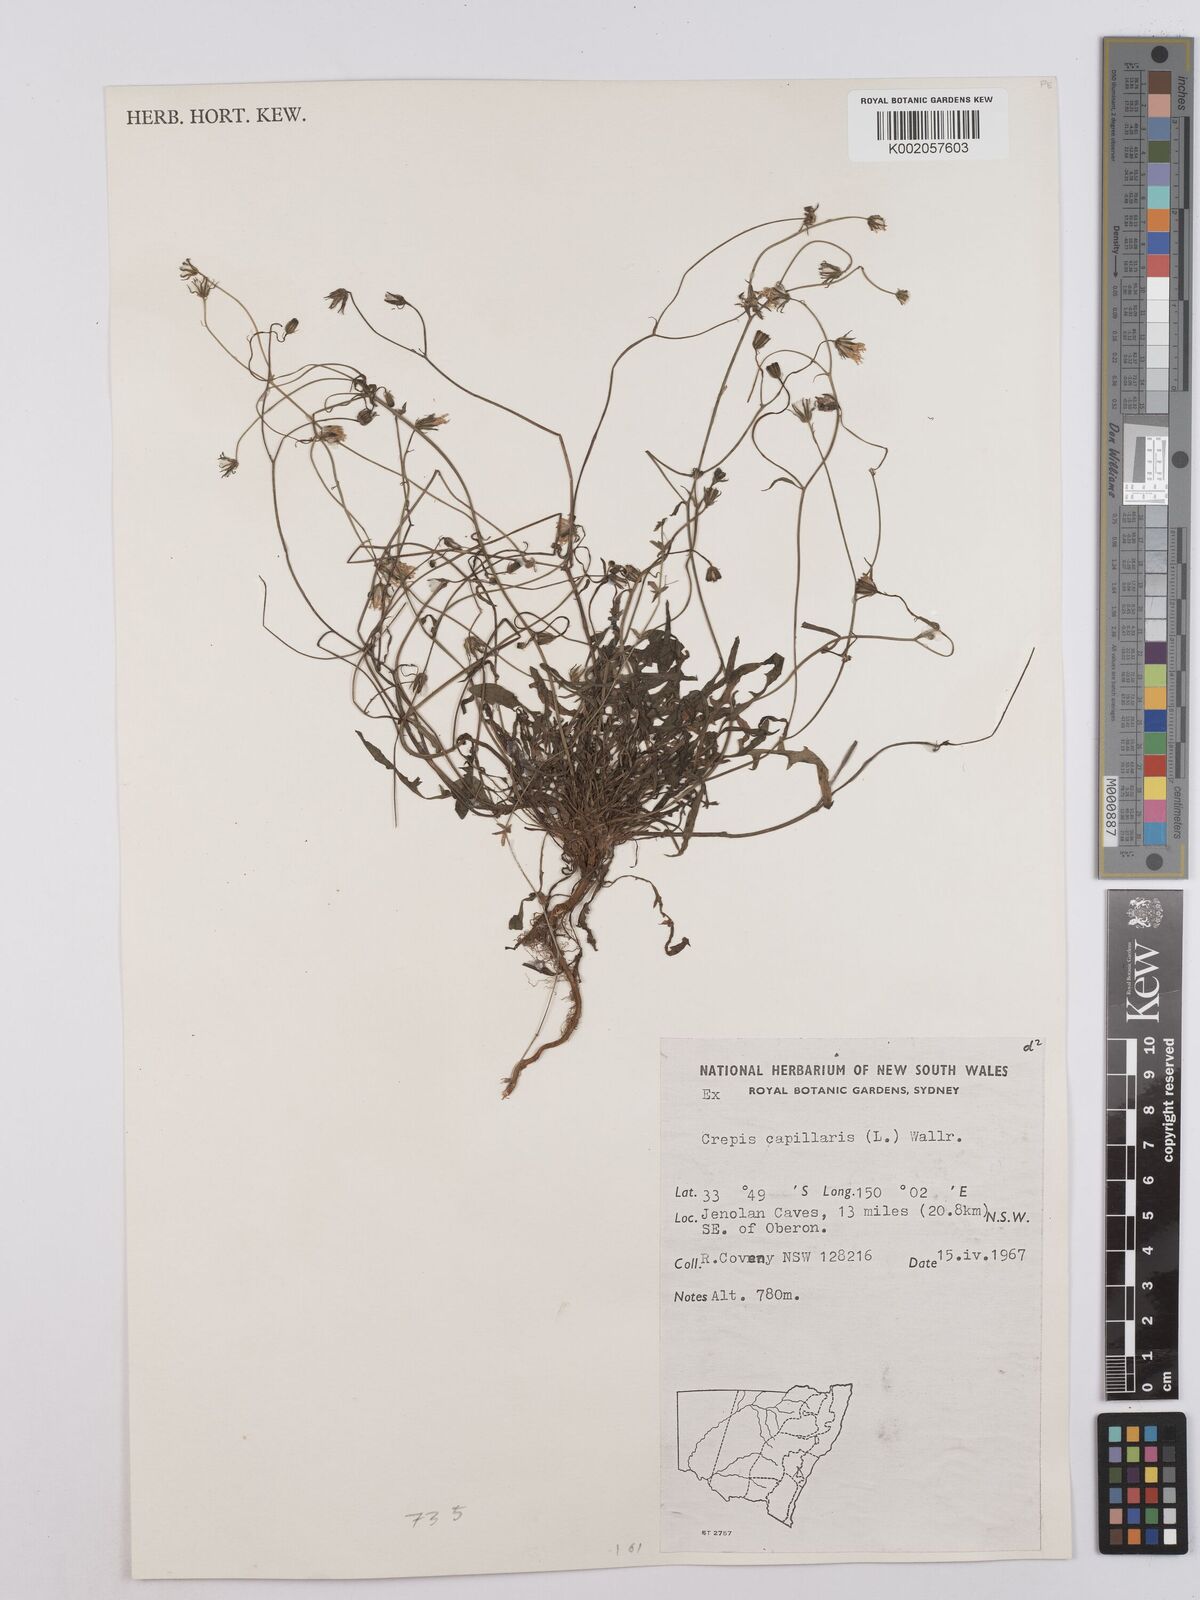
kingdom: Plantae
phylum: Tracheophyta
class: Magnoliopsida
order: Asterales
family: Asteraceae
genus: Crepis
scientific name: Crepis capillaris
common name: Smooth hawksbeard
